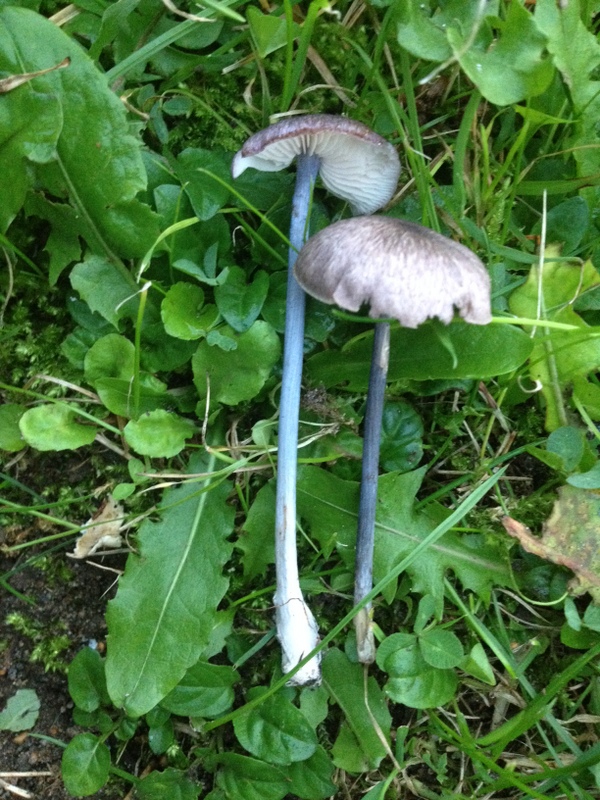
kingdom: Fungi
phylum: Basidiomycota
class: Agaricomycetes
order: Agaricales
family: Entolomataceae
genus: Entoloma
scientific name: Entoloma placidum
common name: bøge-rødblad
